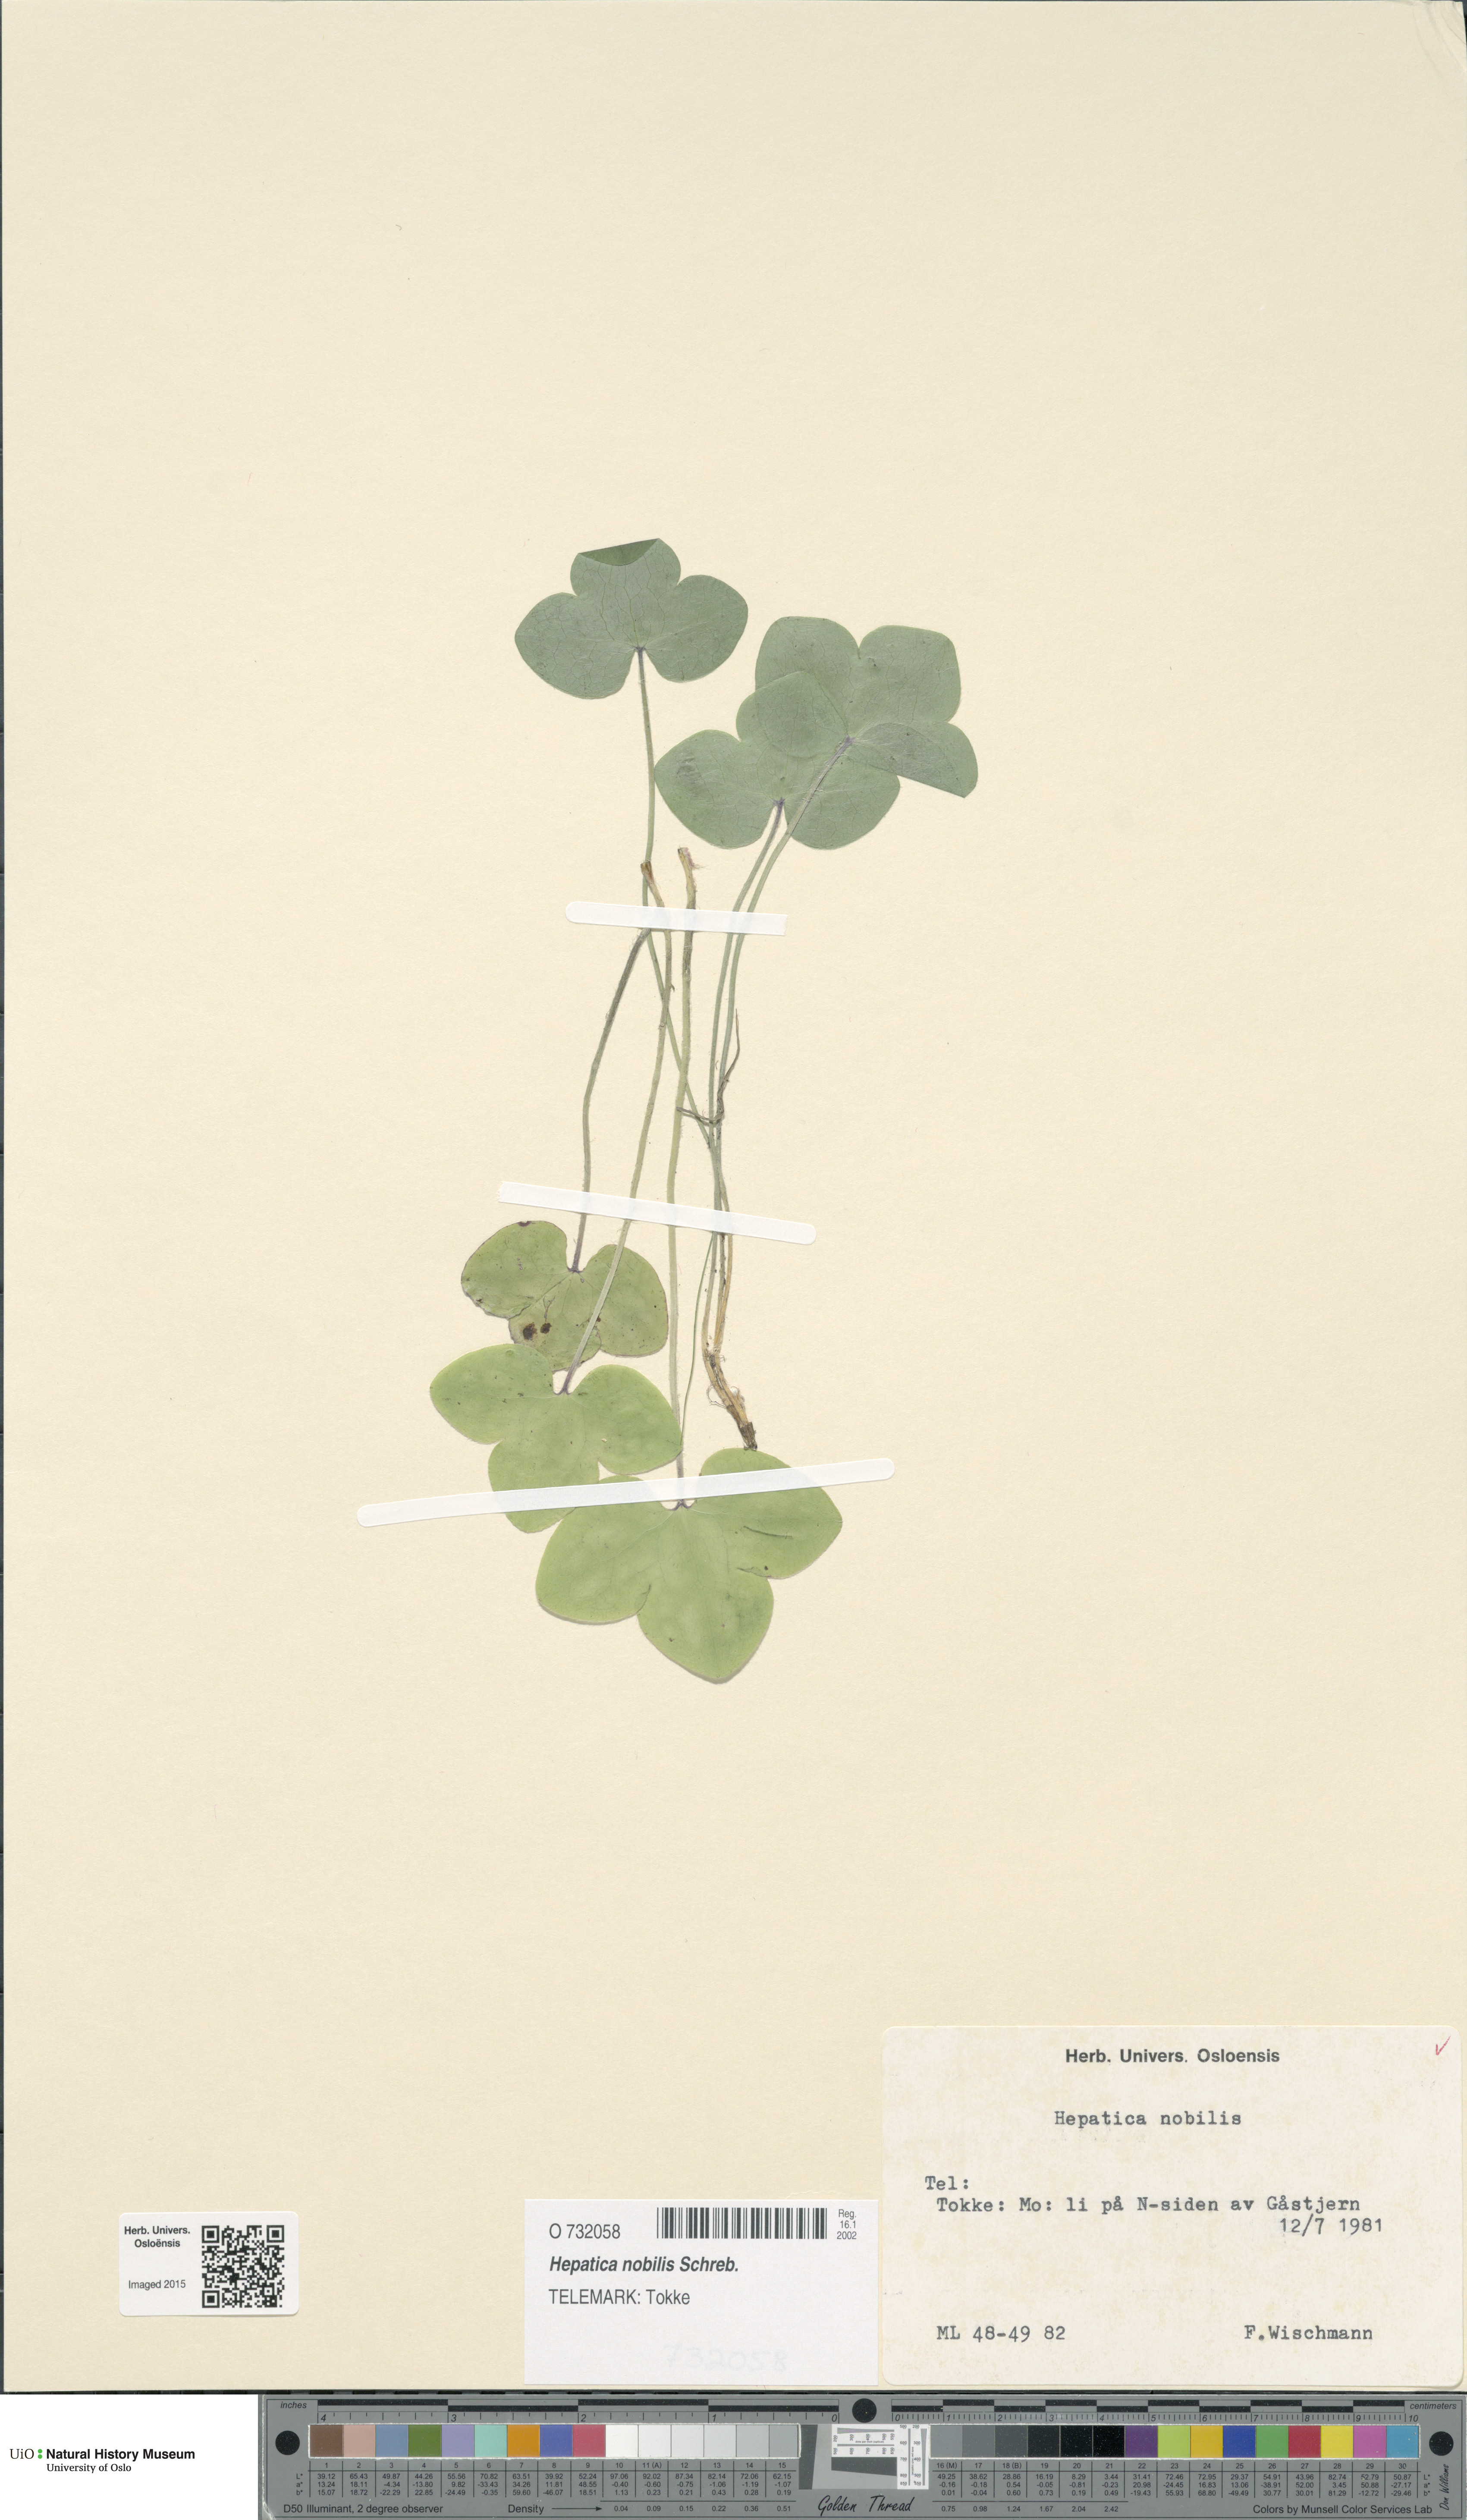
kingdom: Plantae
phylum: Tracheophyta
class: Magnoliopsida
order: Ranunculales
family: Ranunculaceae
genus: Hepatica
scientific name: Hepatica nobilis
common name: Liverleaf
